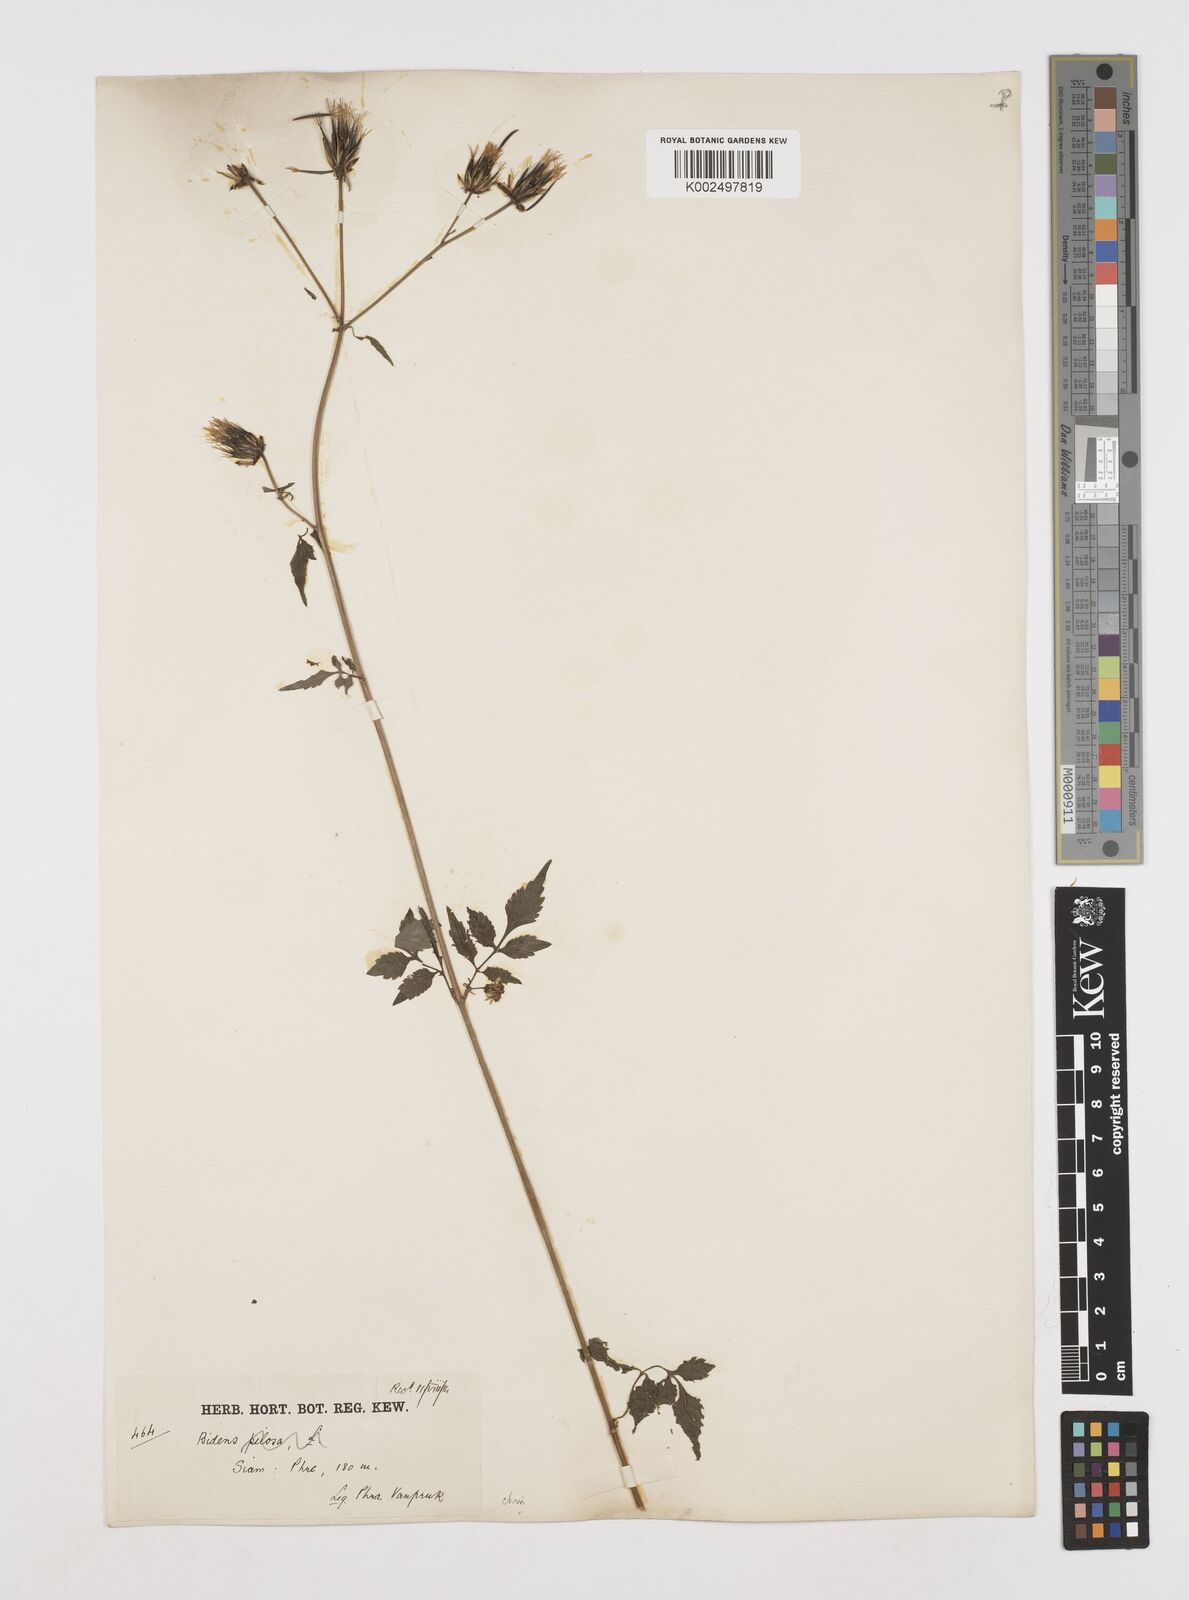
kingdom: Plantae
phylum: Tracheophyta
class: Magnoliopsida
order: Asterales
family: Asteraceae
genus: Cosmos
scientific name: Cosmos bipinnatus
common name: Garden cosmos
